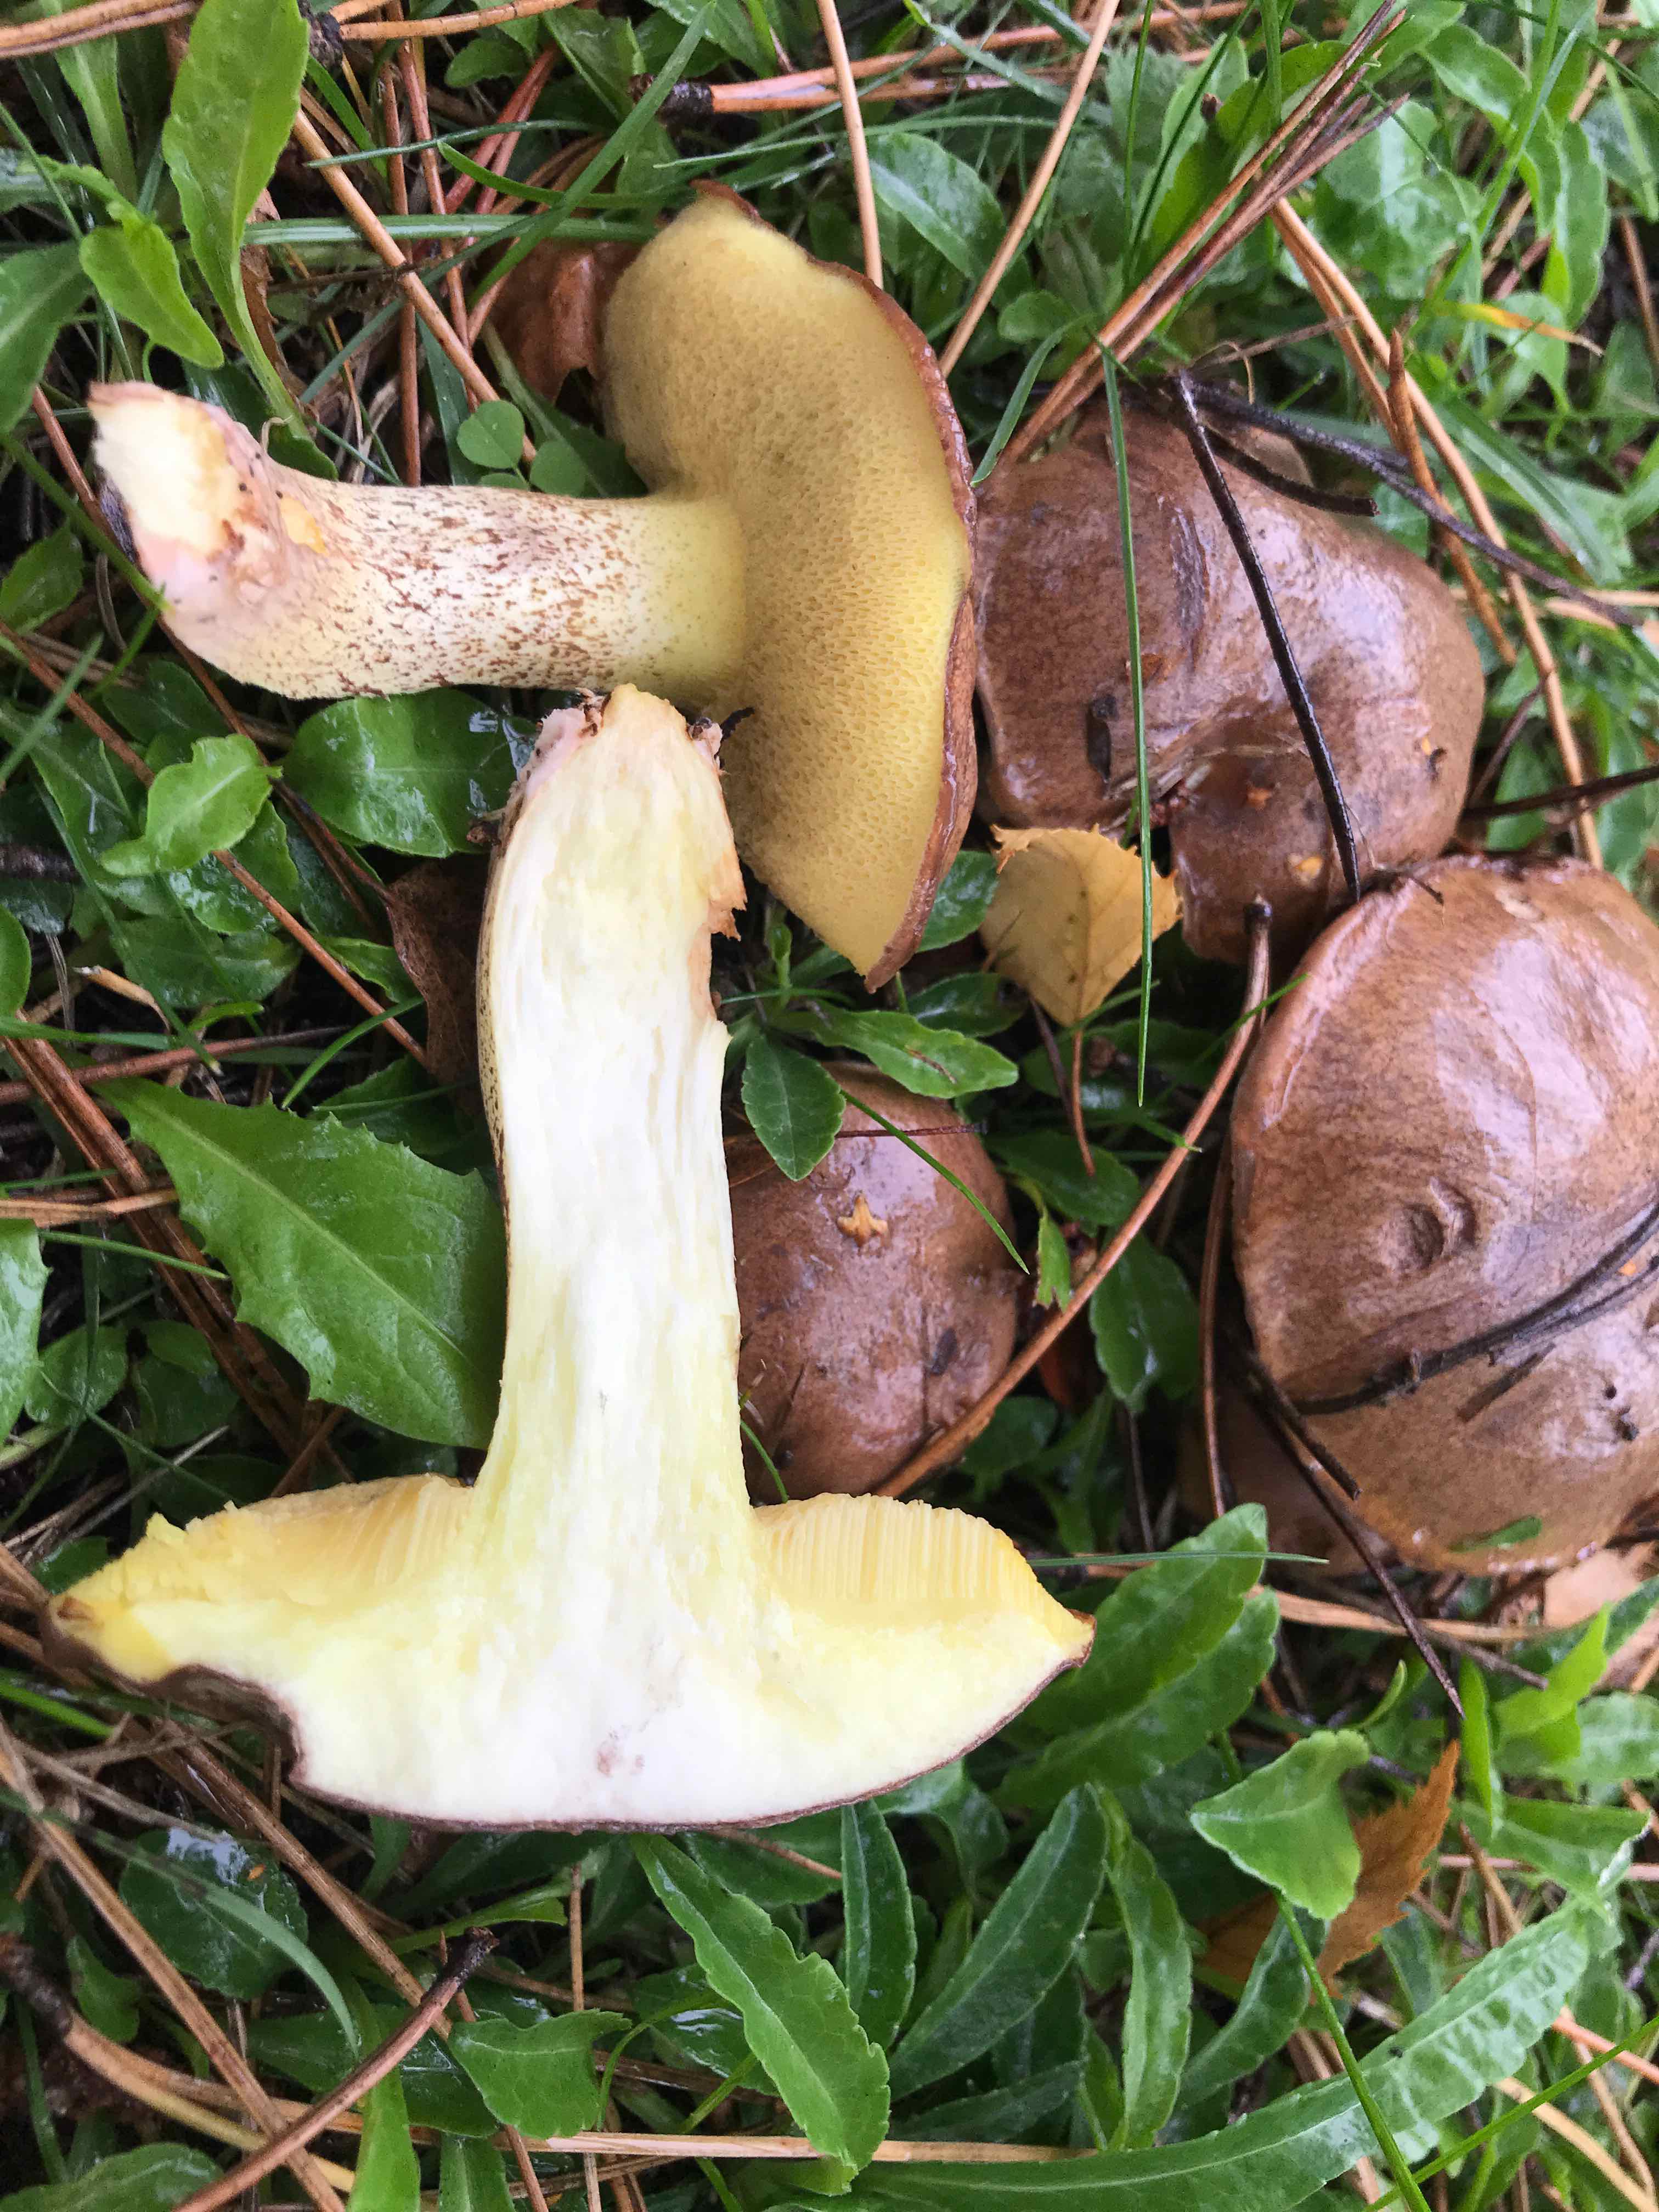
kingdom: Fungi
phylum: Basidiomycota
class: Agaricomycetes
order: Boletales
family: Suillaceae
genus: Suillus
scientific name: Suillus collinitus
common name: rosafodet slimrørhat
